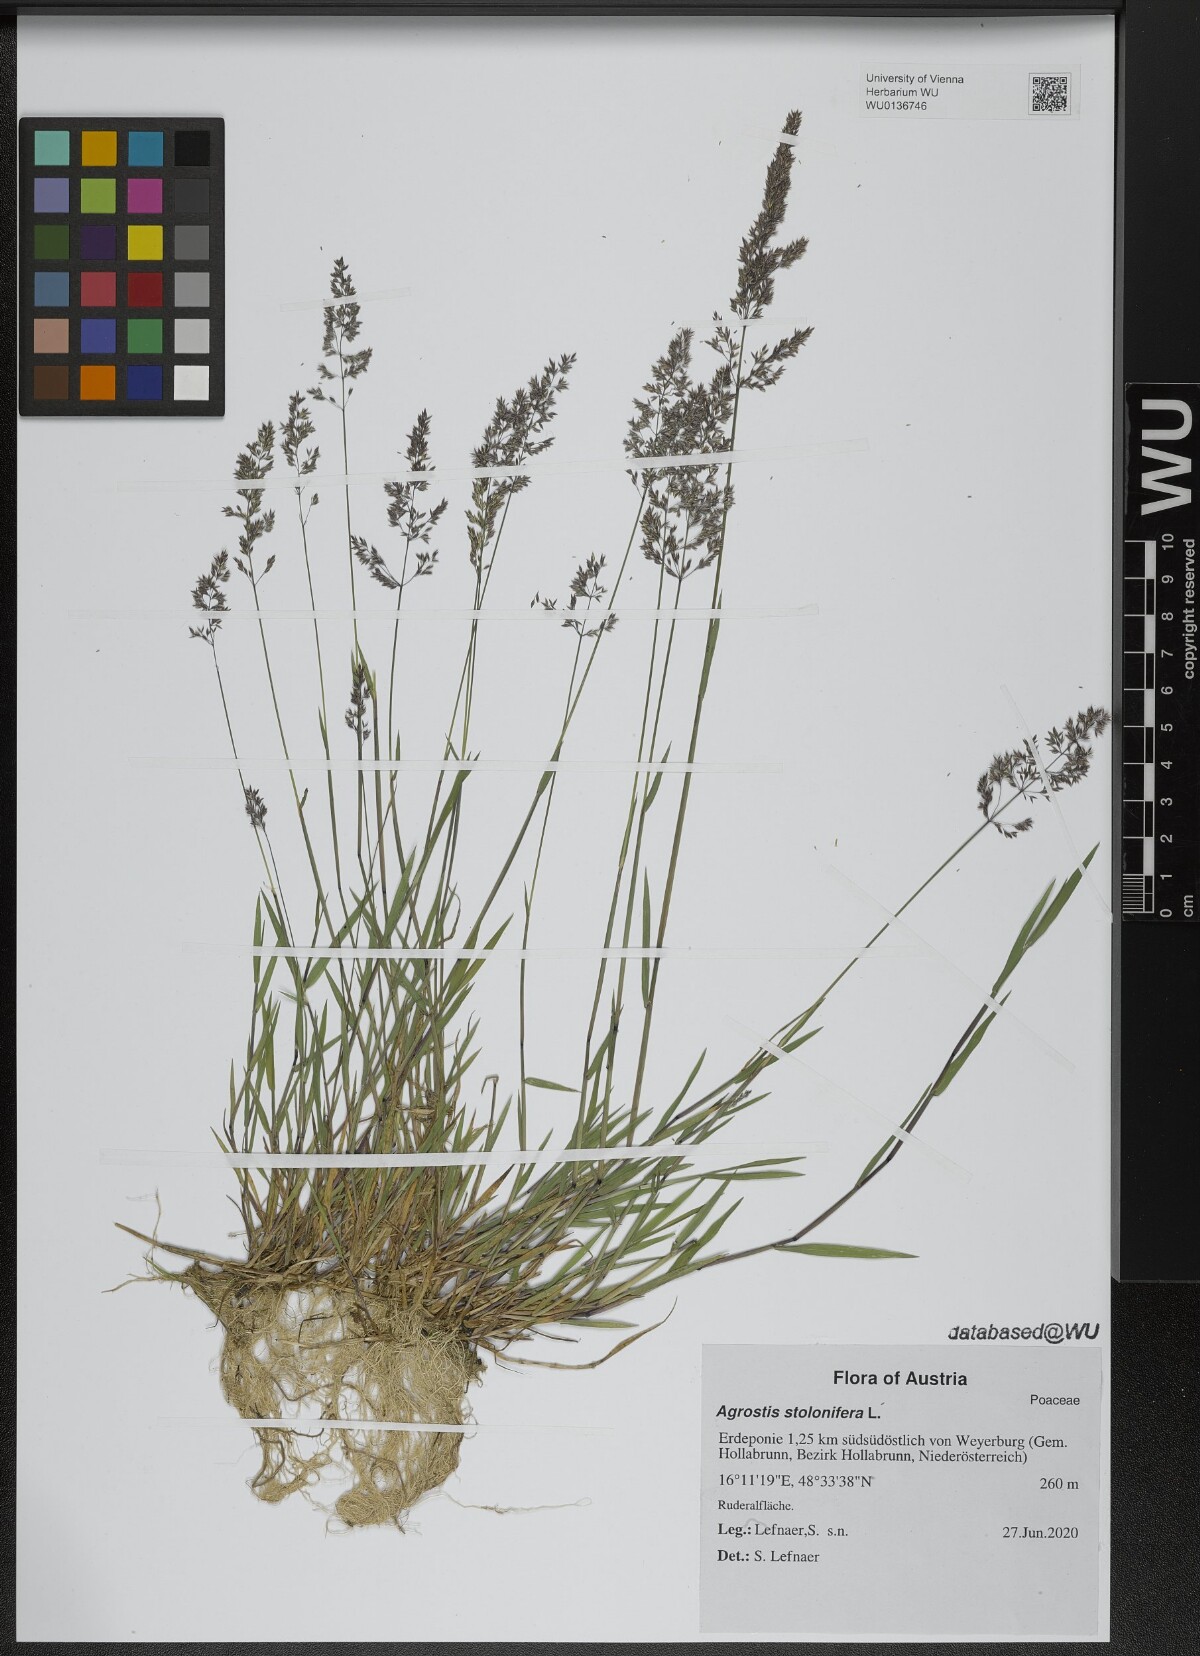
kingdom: Plantae
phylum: Tracheophyta
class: Liliopsida
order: Poales
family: Poaceae
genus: Agrostis
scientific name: Agrostis stolonifera
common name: Creeping bentgrass
